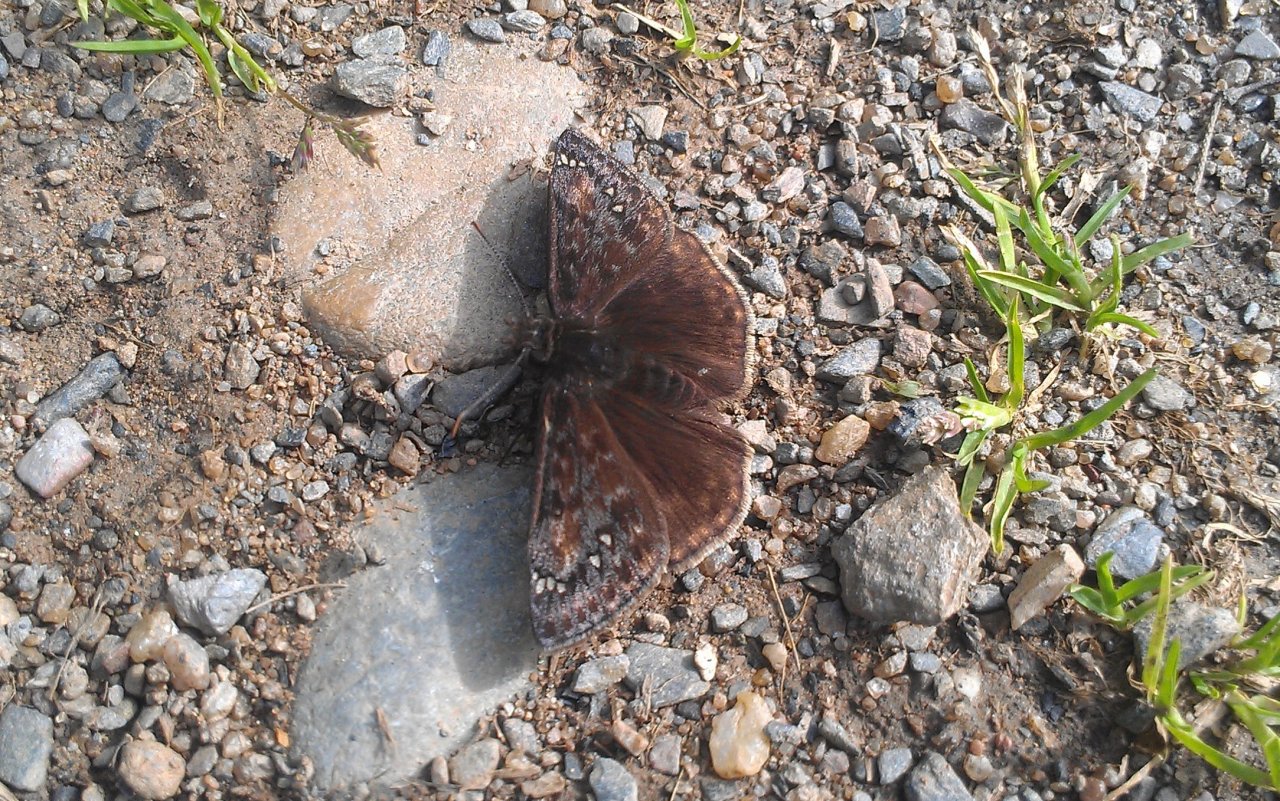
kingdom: Animalia
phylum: Arthropoda
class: Insecta
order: Lepidoptera
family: Hesperiidae
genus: Gesta
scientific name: Gesta
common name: Juvenal's Duskywing
